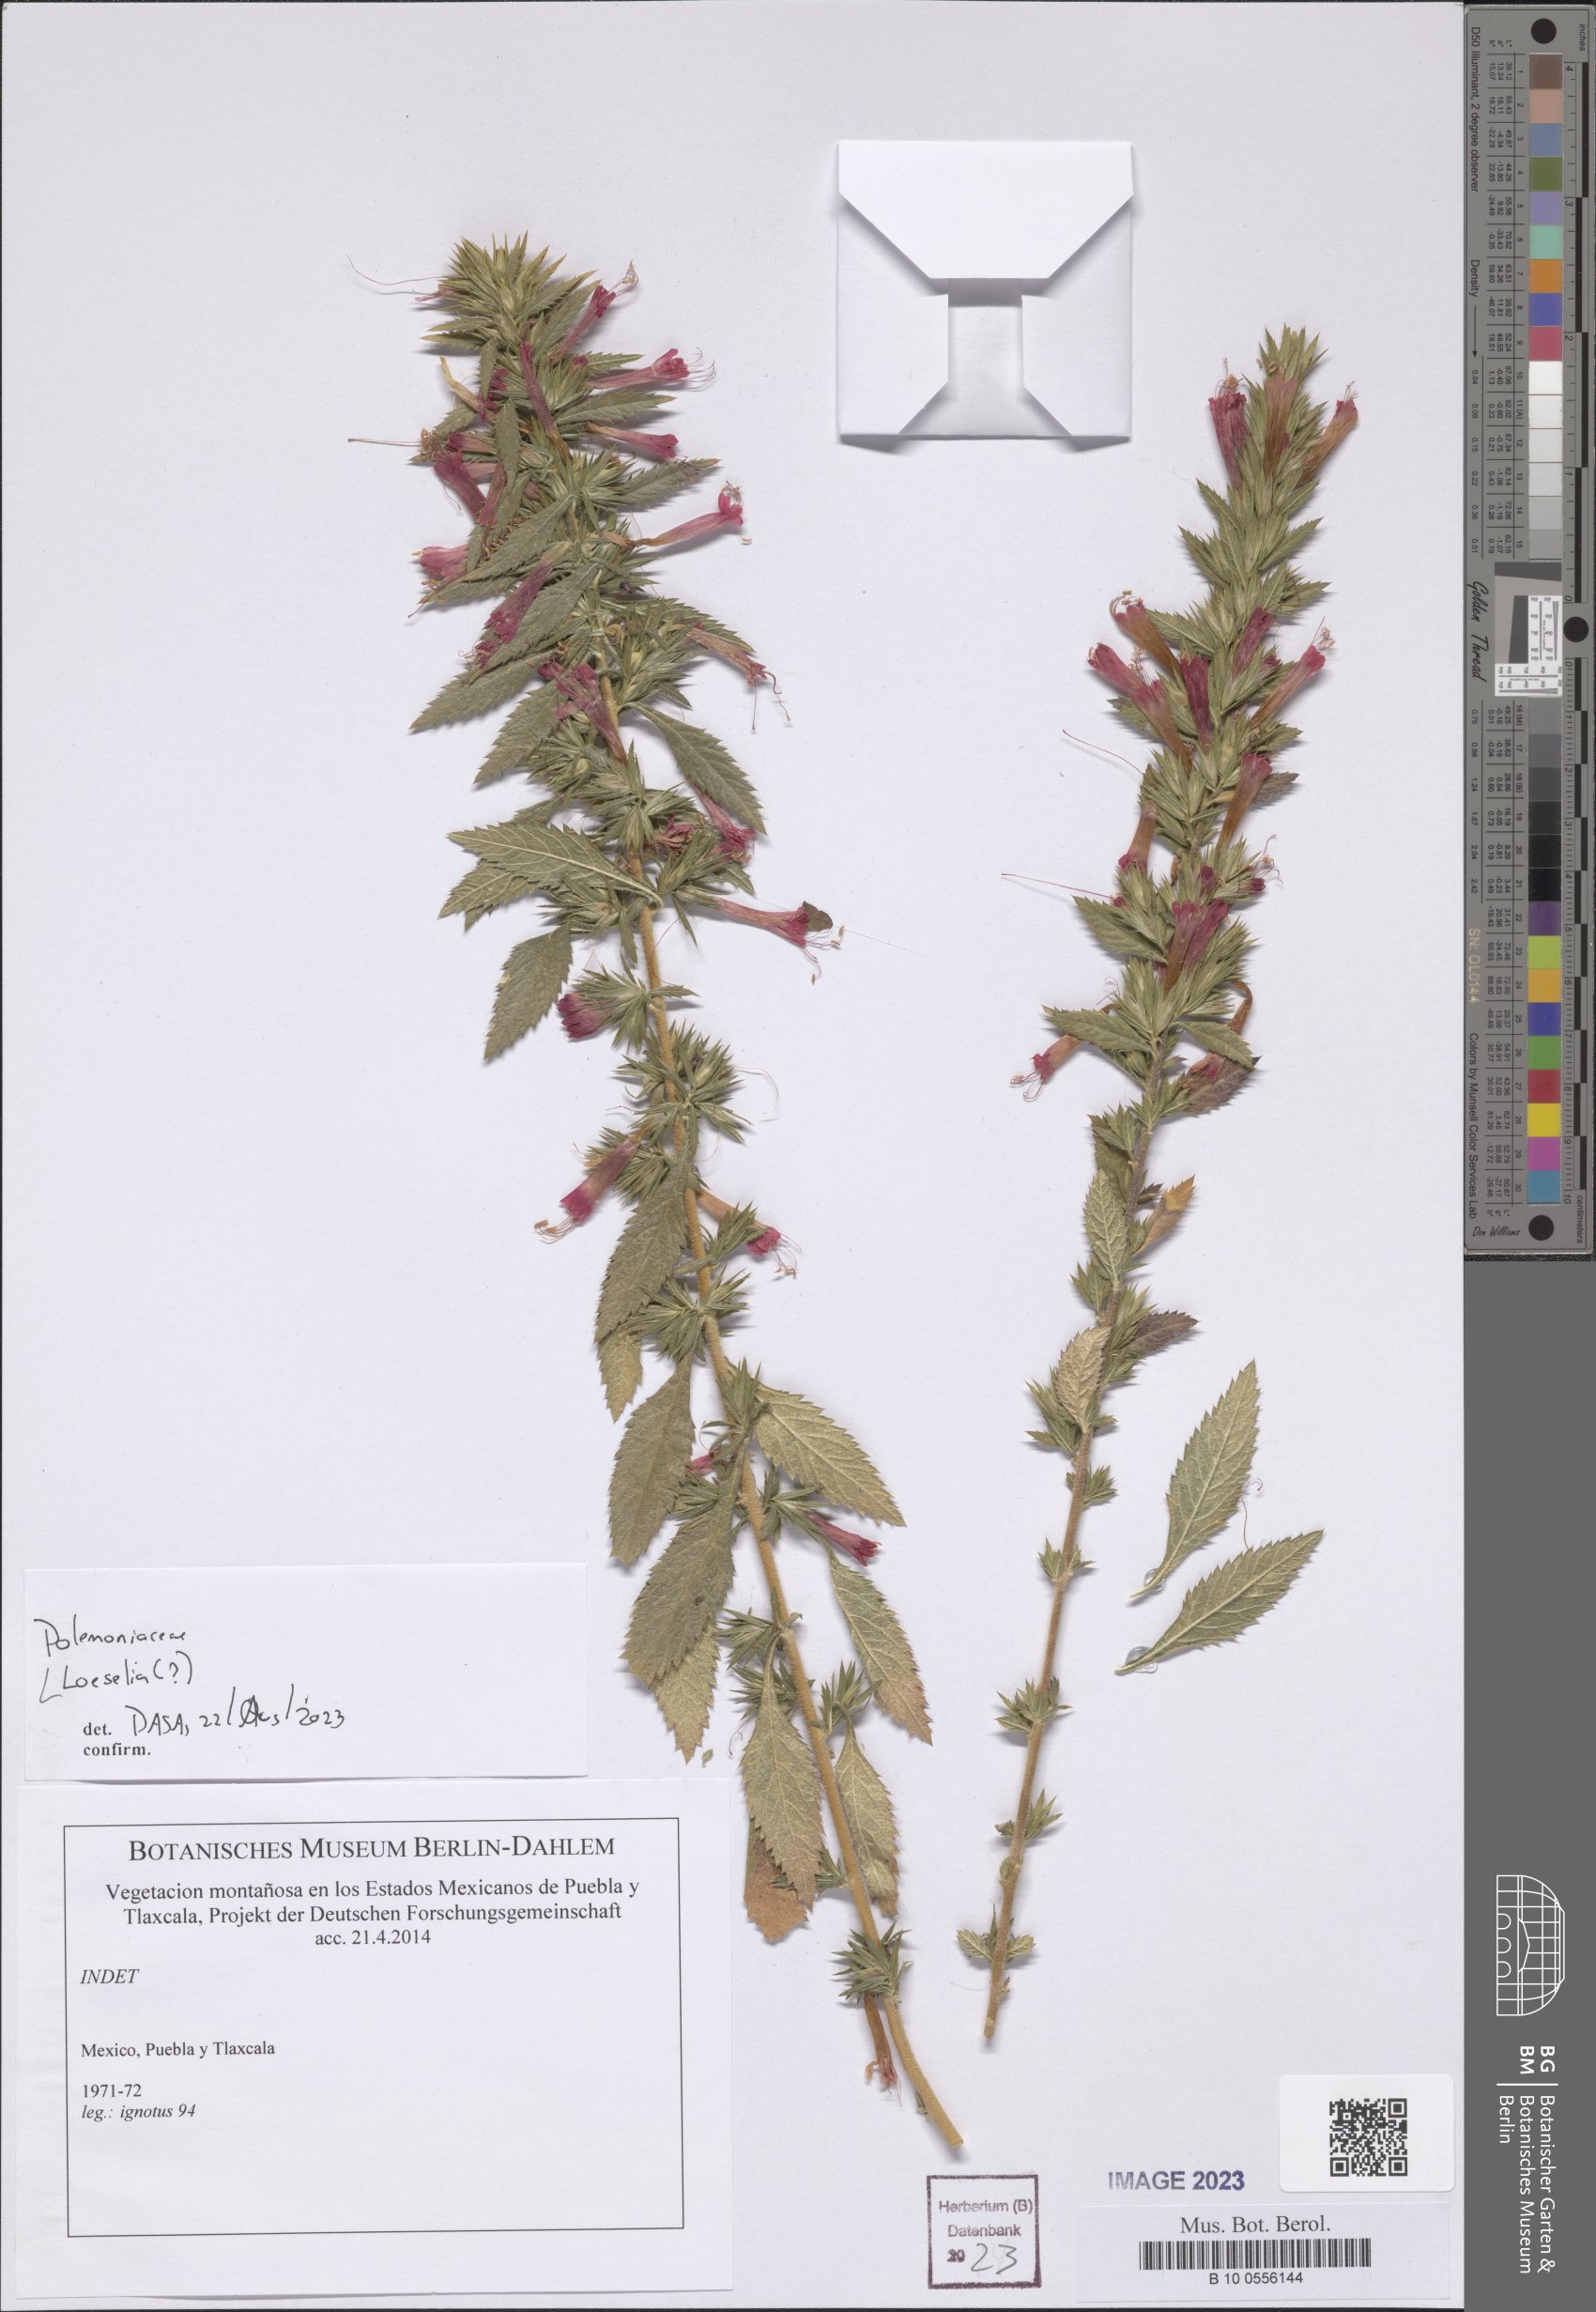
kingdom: Plantae
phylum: Tracheophyta
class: Magnoliopsida
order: Ericales
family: Polemoniaceae
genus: Loeselia
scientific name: Loeselia
